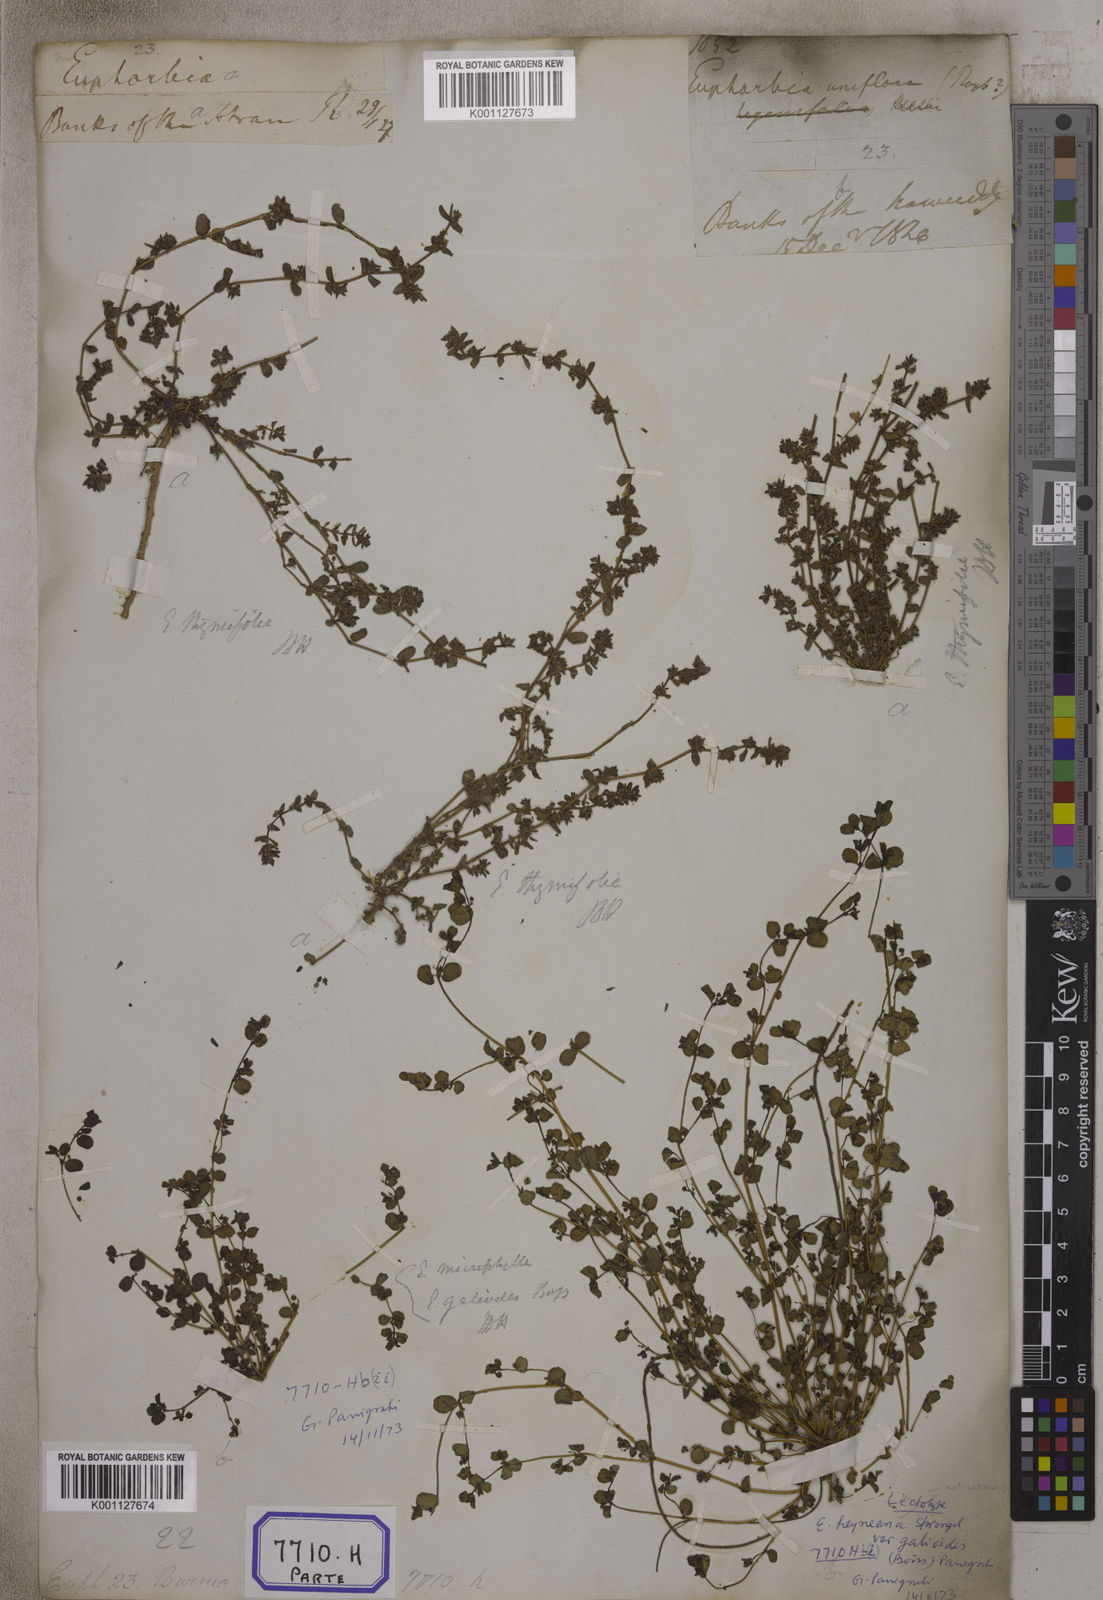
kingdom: Plantae
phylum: Tracheophyta
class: Magnoliopsida
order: Malpighiales
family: Euphorbiaceae
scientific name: Euphorbiaceae
